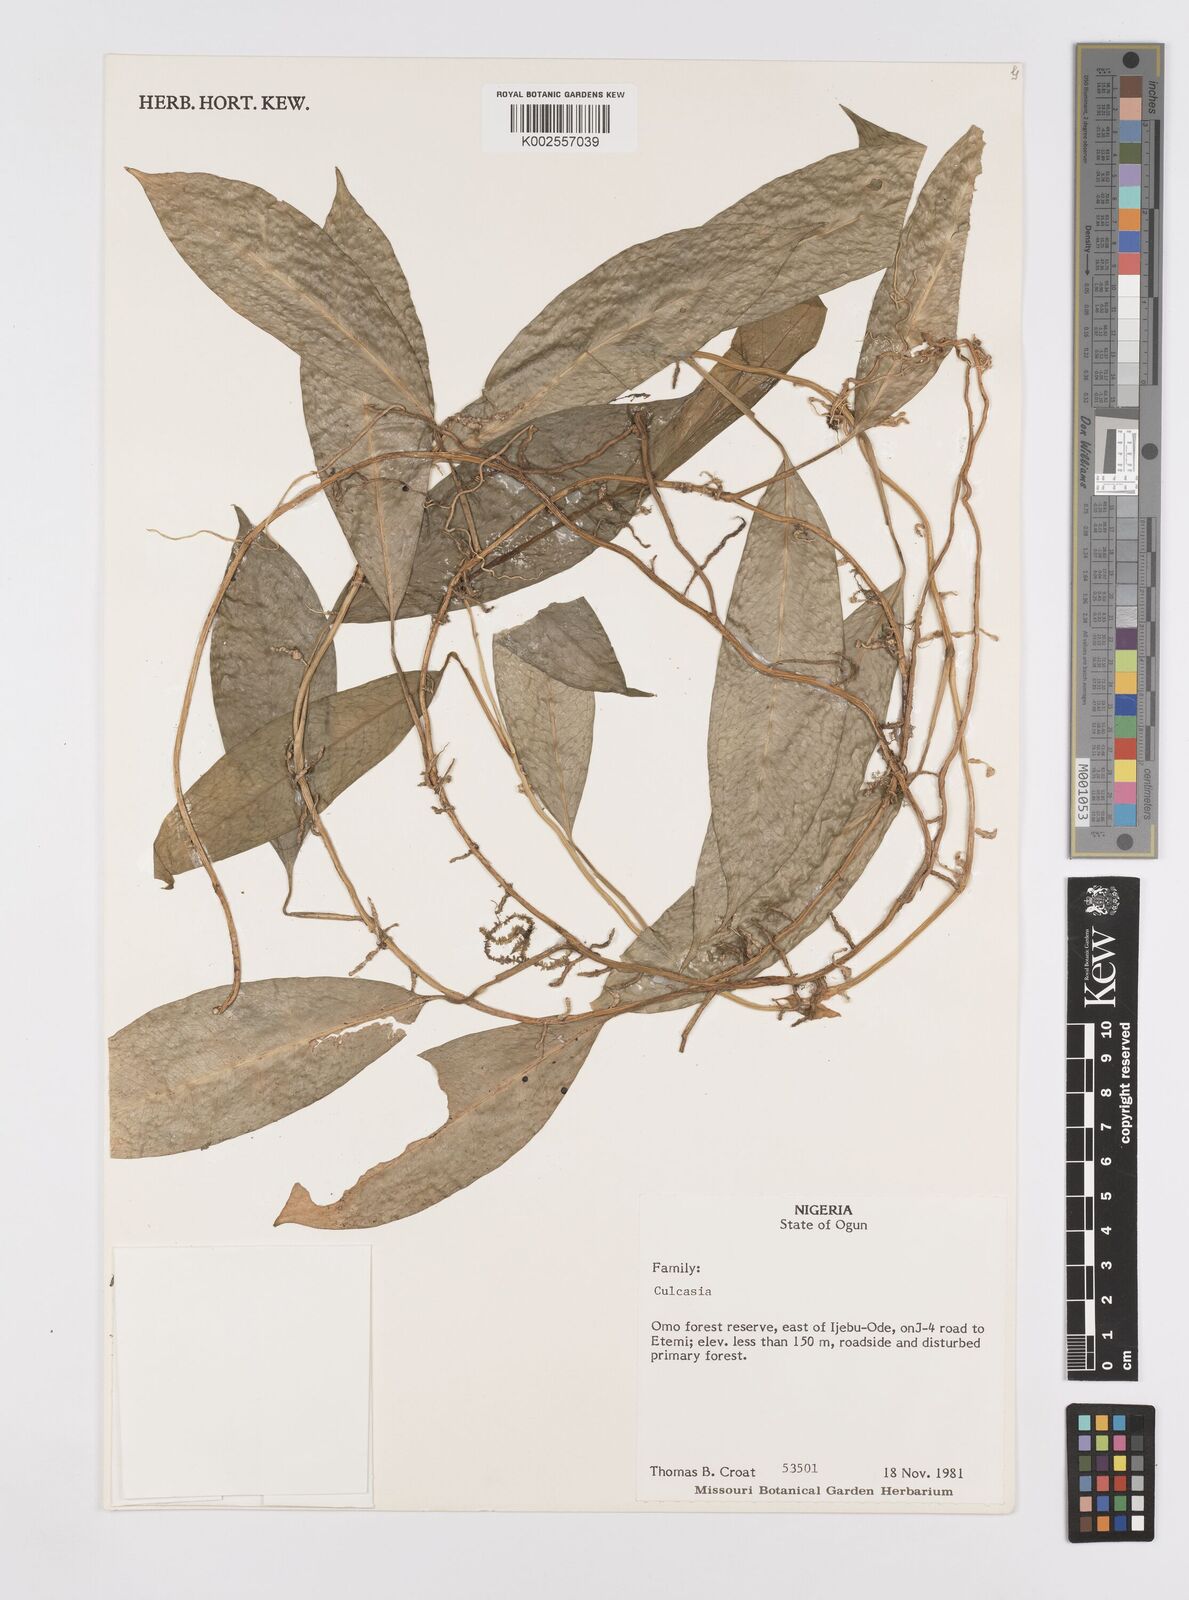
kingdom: Plantae
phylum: Tracheophyta
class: Liliopsida
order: Alismatales
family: Araceae
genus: Culcasia
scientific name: Culcasia
